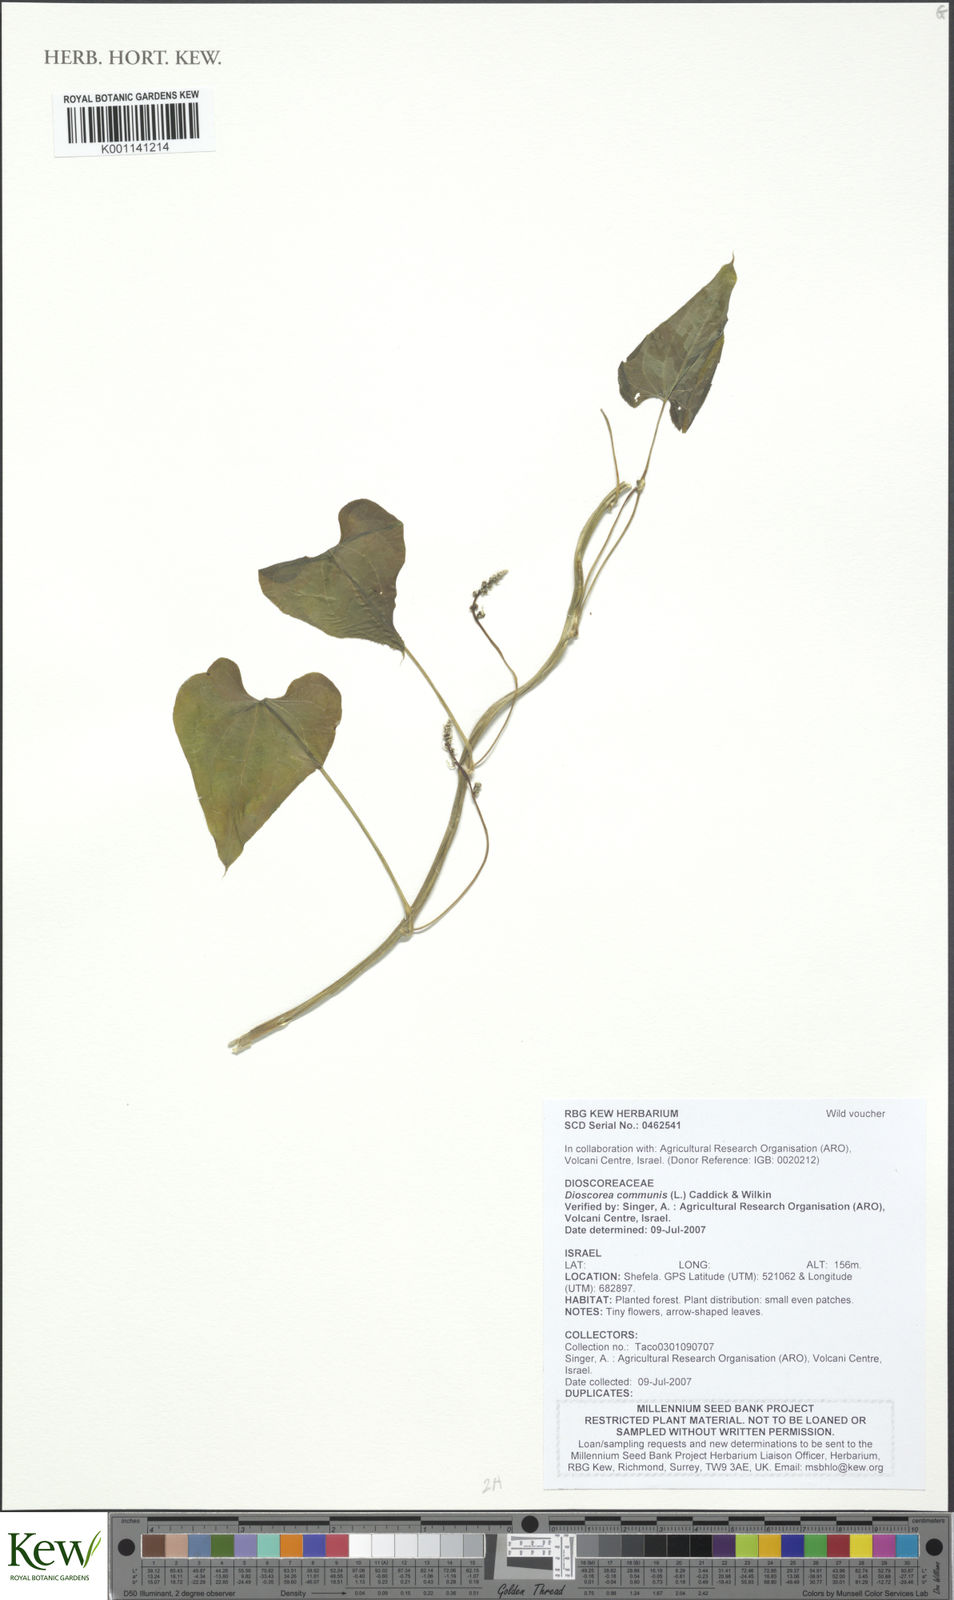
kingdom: Plantae
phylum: Tracheophyta
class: Liliopsida
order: Dioscoreales
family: Dioscoreaceae
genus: Dioscorea
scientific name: Dioscorea communis
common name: Black-bindweed
